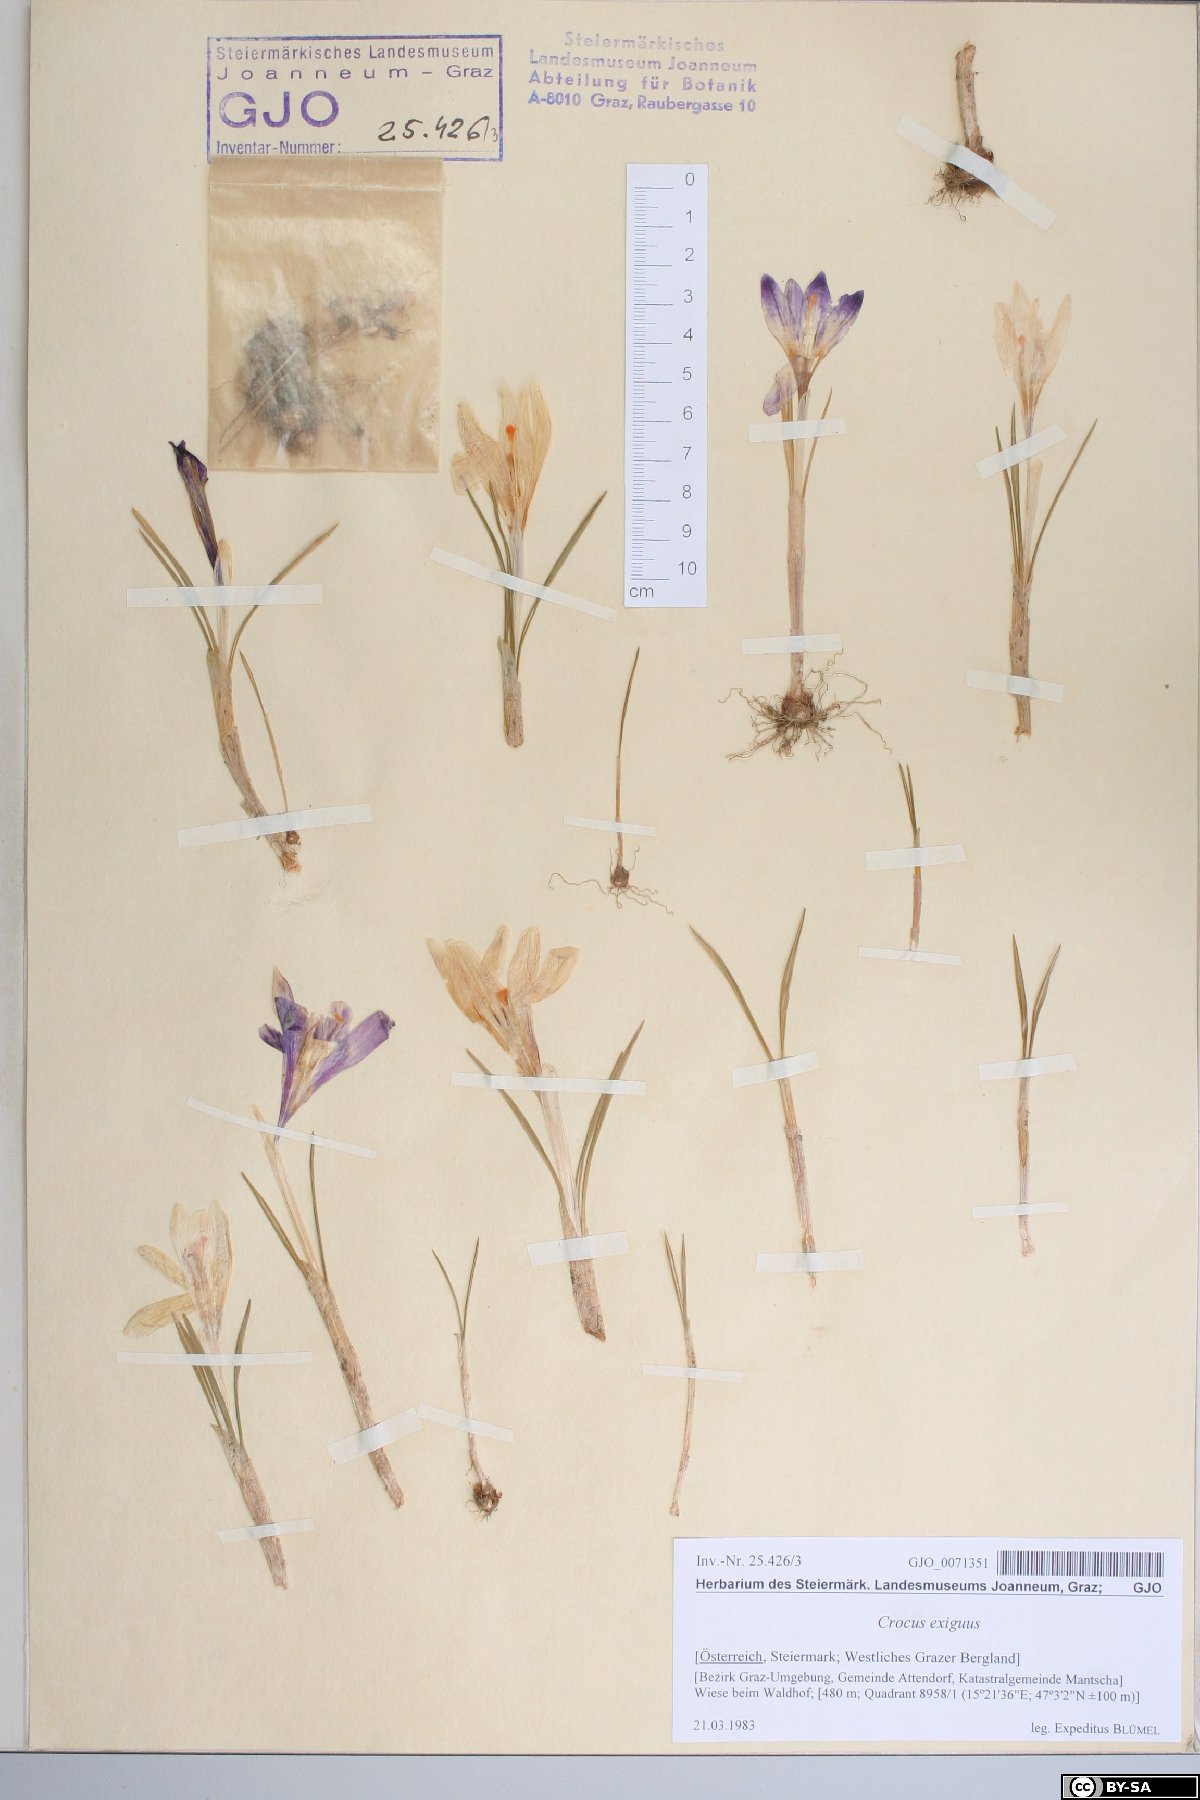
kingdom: Plantae
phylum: Tracheophyta
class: Liliopsida
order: Asparagales
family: Iridaceae
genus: Crocus
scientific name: Crocus heuffelianus
